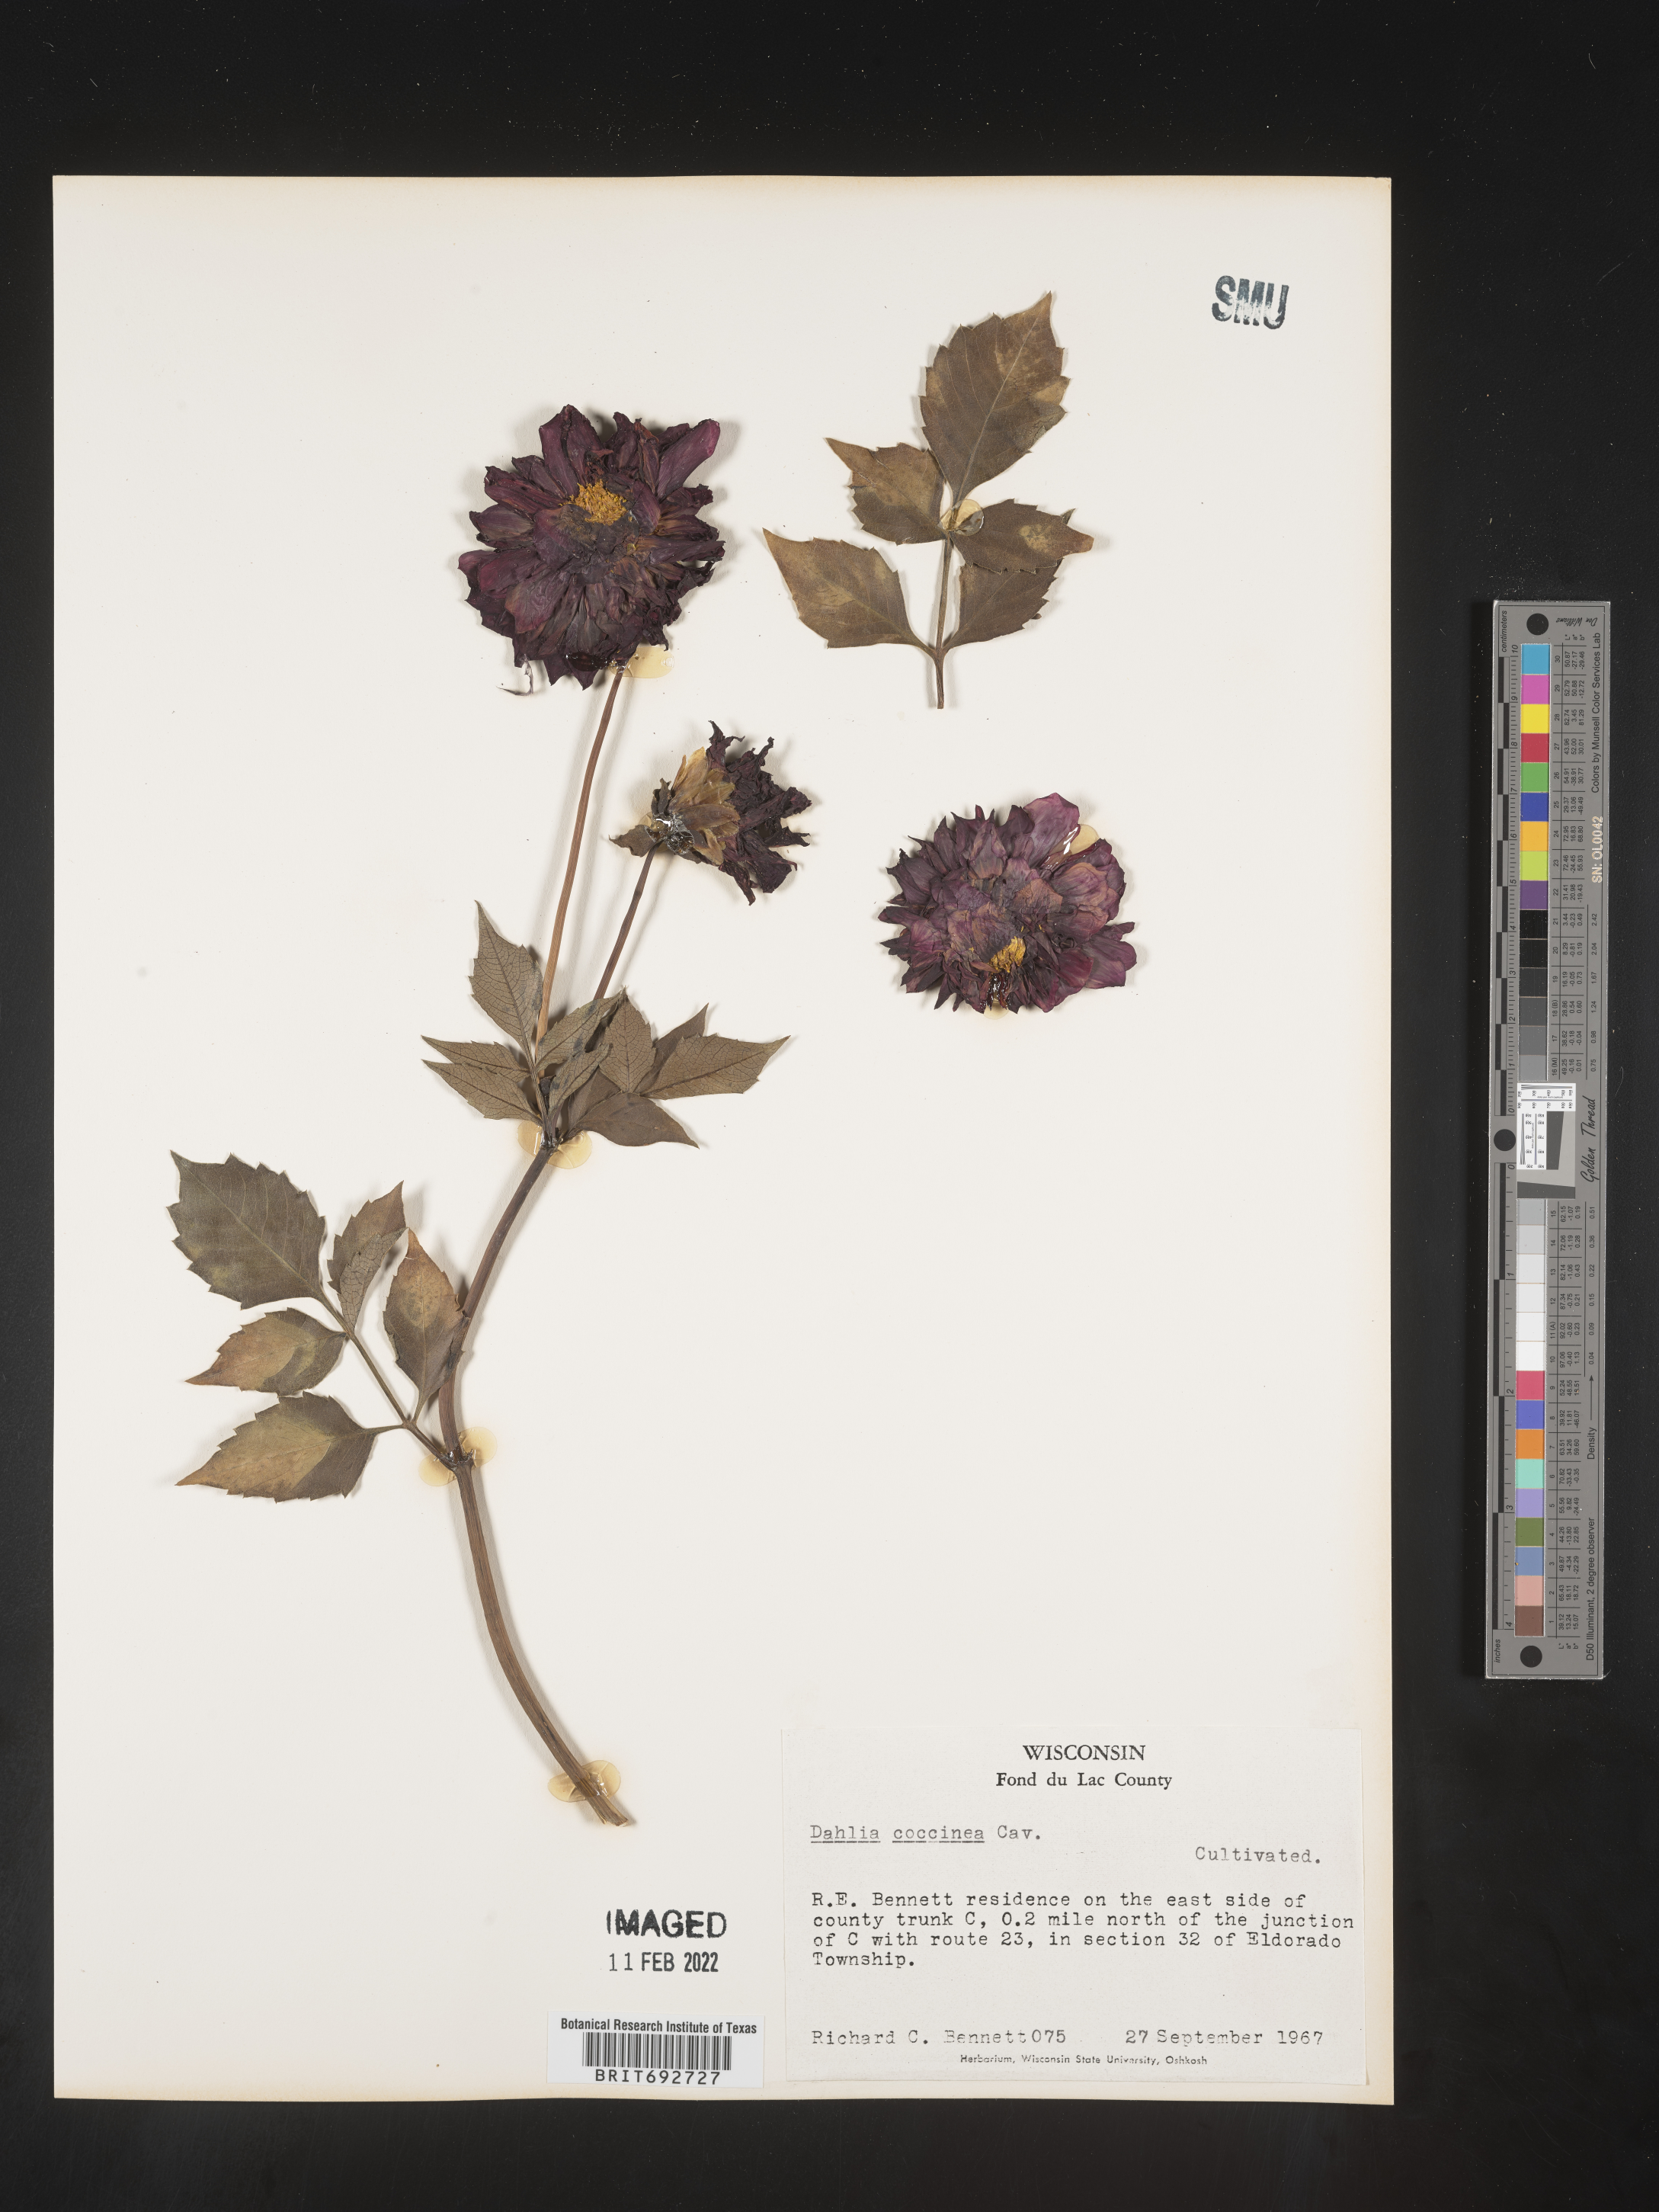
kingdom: Plantae
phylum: Tracheophyta
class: Magnoliopsida
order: Asterales
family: Asteraceae
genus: Dahlia
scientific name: Dahlia
